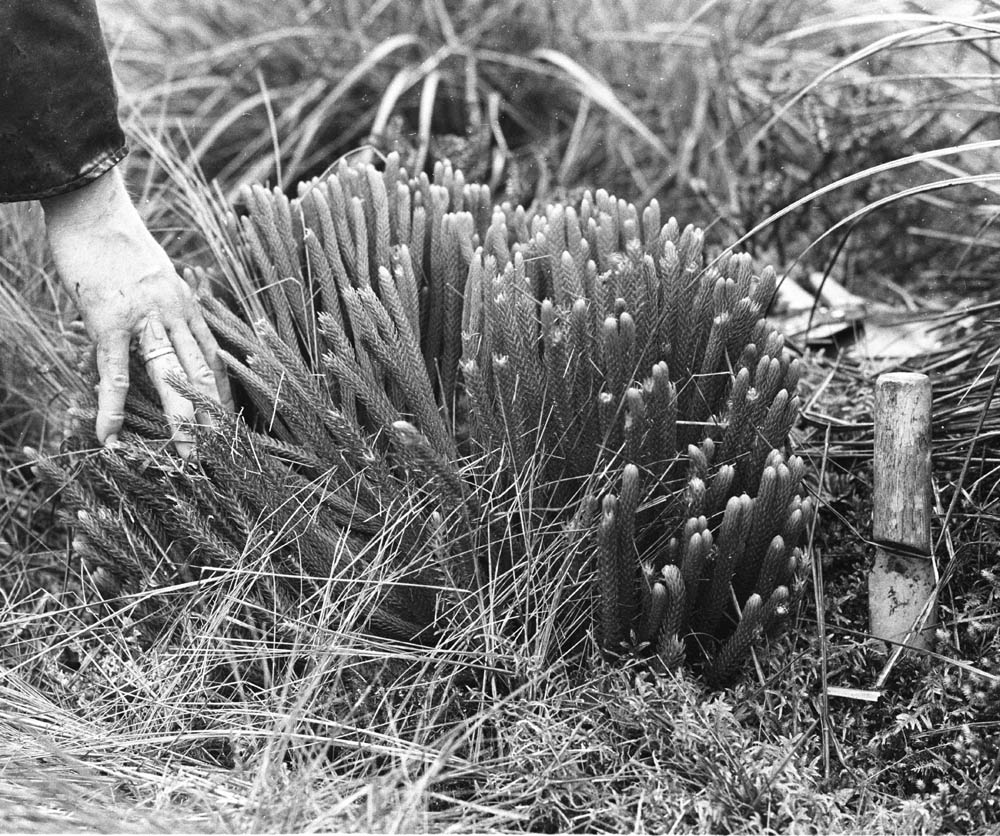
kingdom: Plantae
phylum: Tracheophyta
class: Lycopodiopsida
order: Lycopodiales
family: Lycopodiaceae
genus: Phlegmariurus
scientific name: Phlegmariurus cumingii
